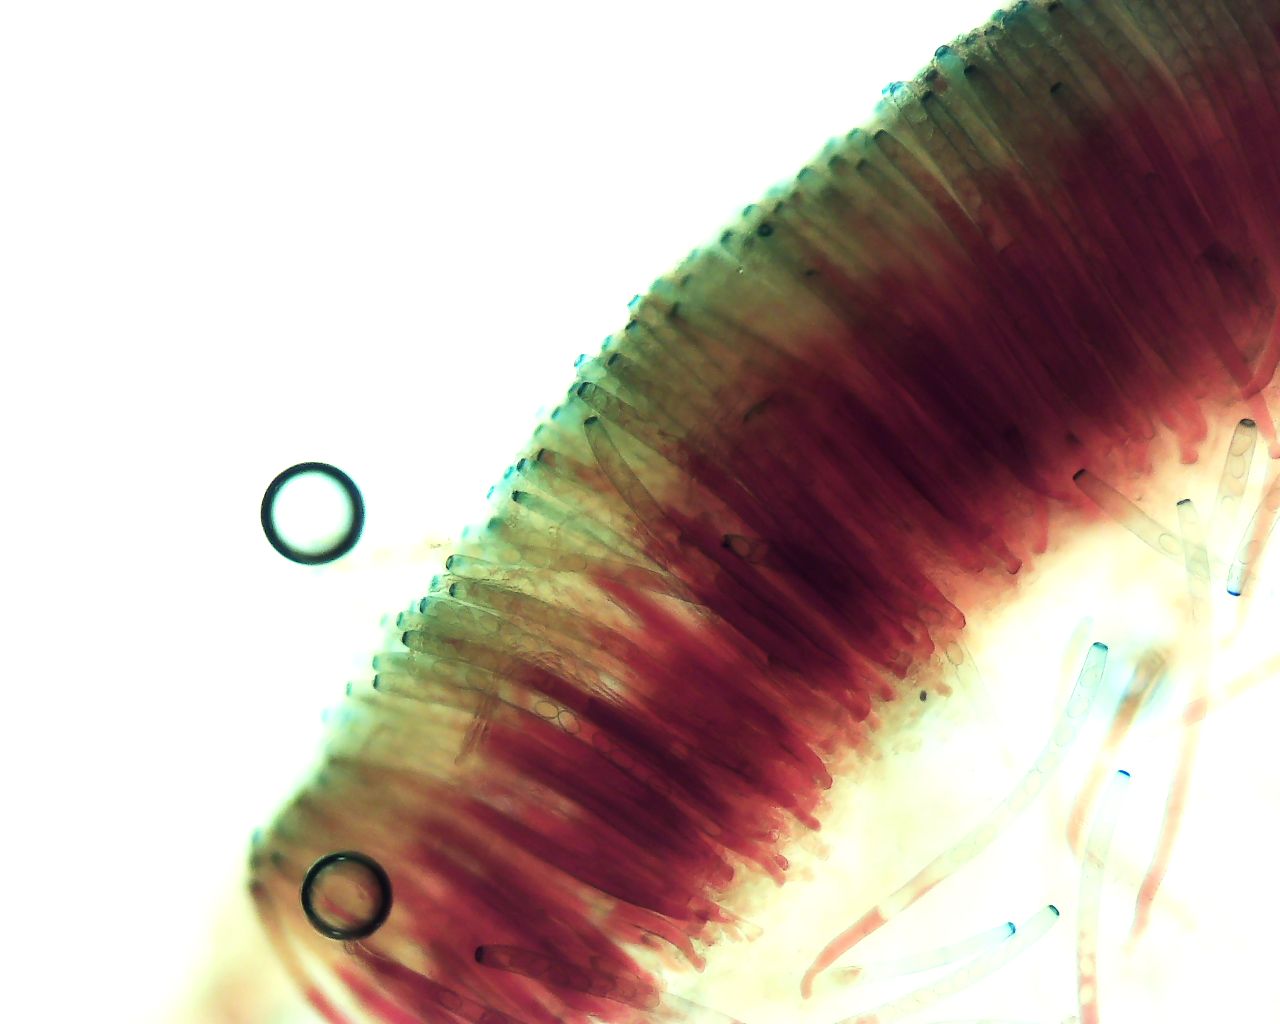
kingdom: Fungi
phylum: Ascomycota
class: Pezizomycetes
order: Pezizales
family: Pezizaceae
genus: Peziza
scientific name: Peziza
